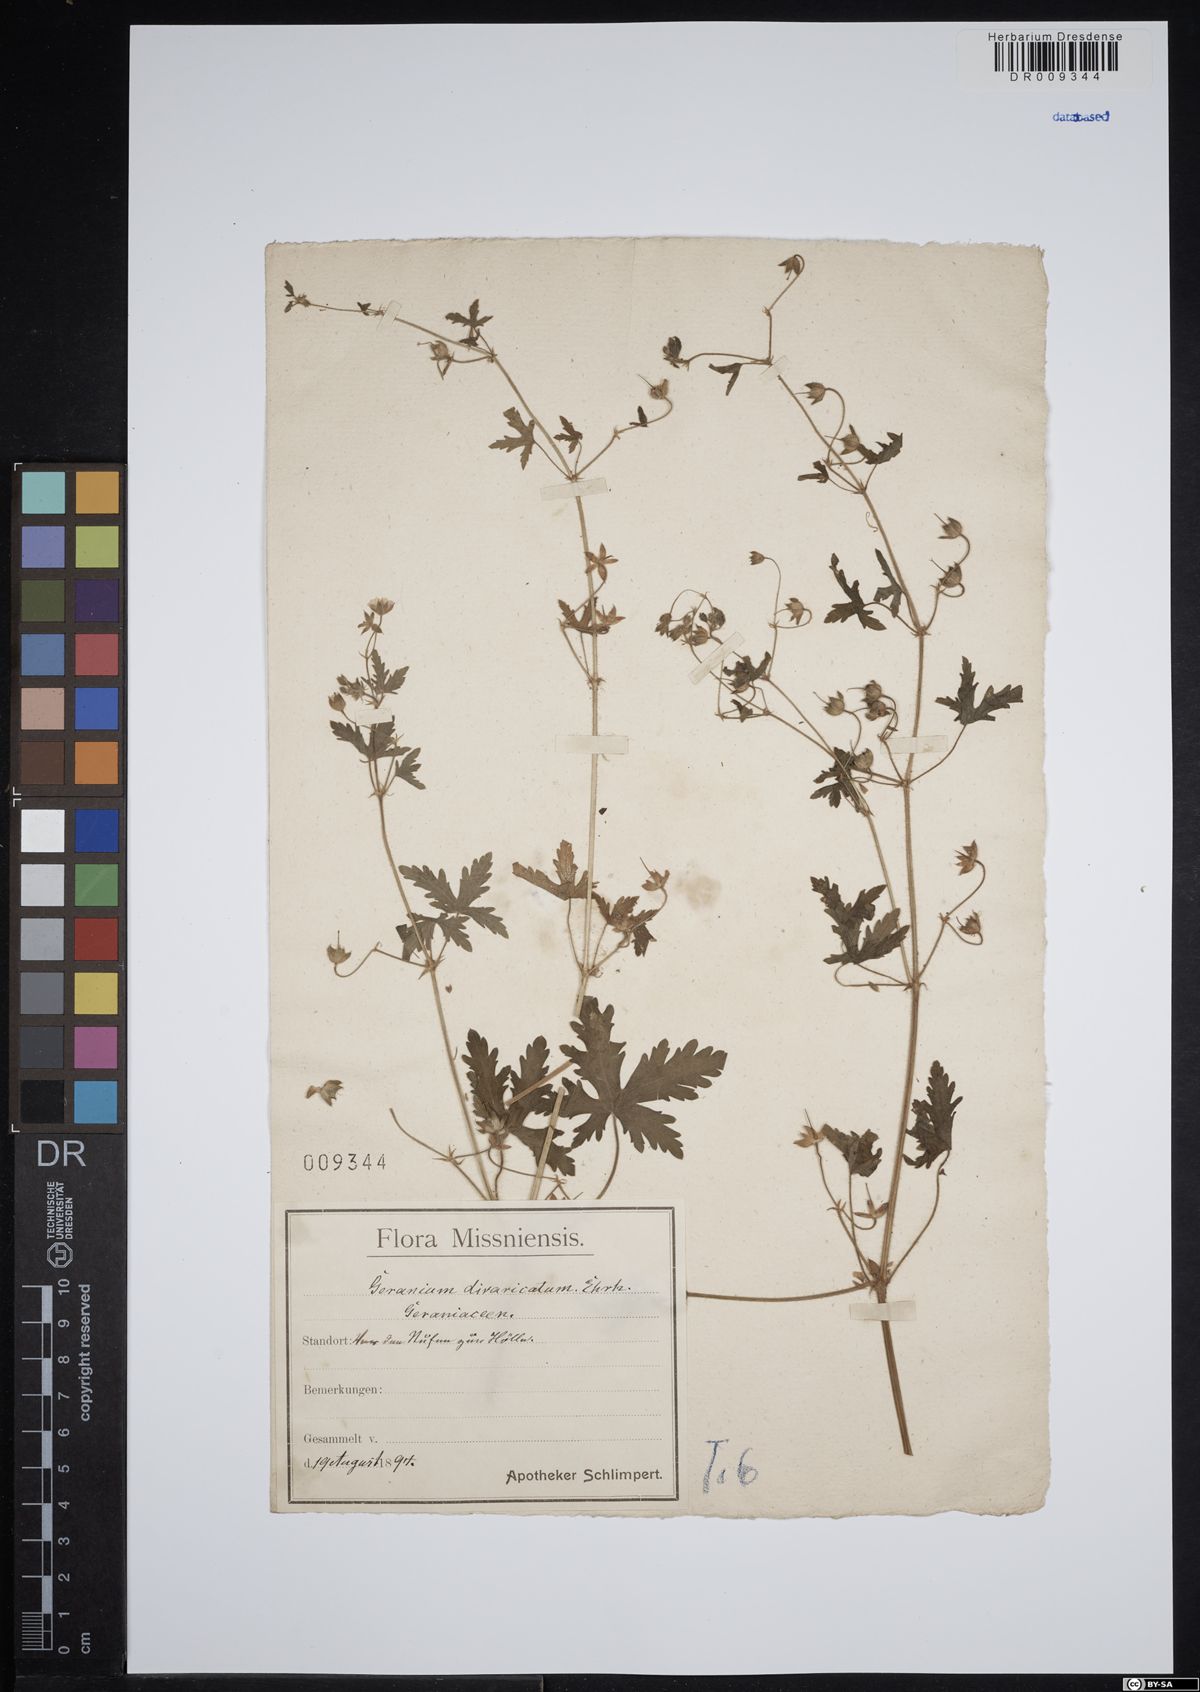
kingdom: Plantae
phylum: Tracheophyta
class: Magnoliopsida
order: Geraniales
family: Geraniaceae
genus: Geranium
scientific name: Geranium divaricatum
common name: Spreading crane's-bill
